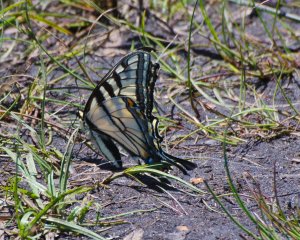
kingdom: Animalia
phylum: Arthropoda
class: Insecta
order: Lepidoptera
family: Papilionidae
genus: Pterourus
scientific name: Pterourus canadensis
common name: Canadian Tiger Swallowtail
